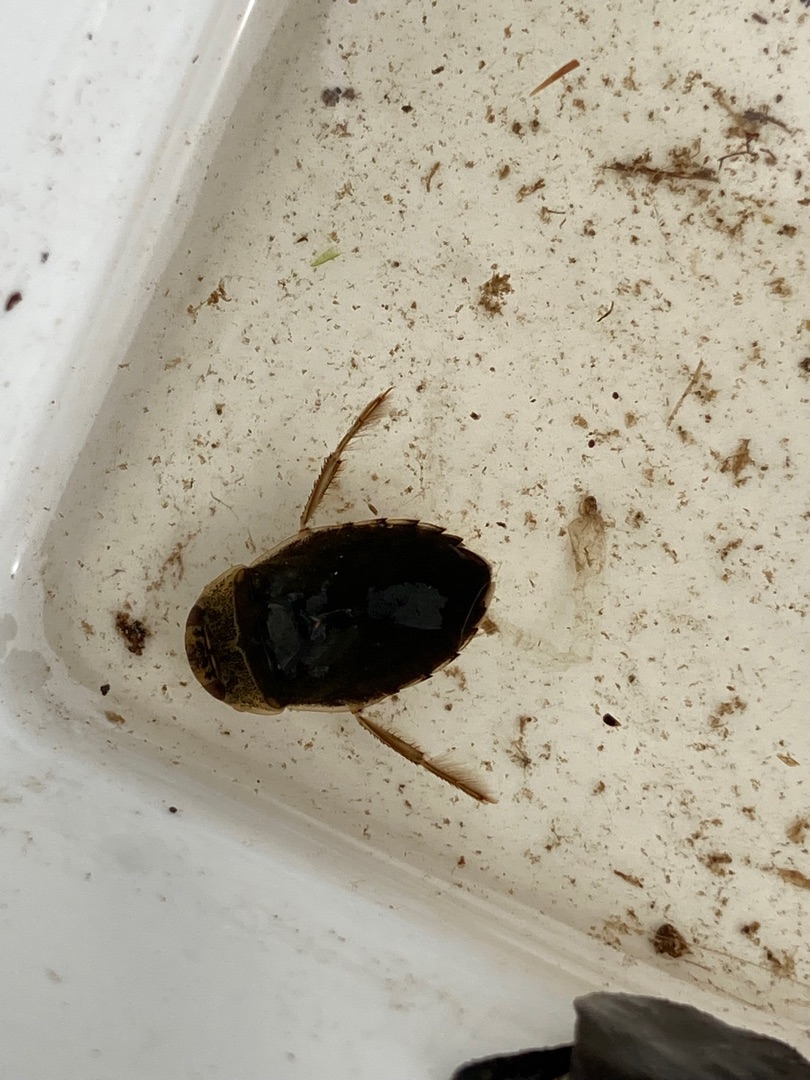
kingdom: Animalia
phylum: Arthropoda
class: Insecta
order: Hemiptera
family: Naucoridae
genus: Ilyocoris
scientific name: Ilyocoris cimicoides
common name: Vandrøver
